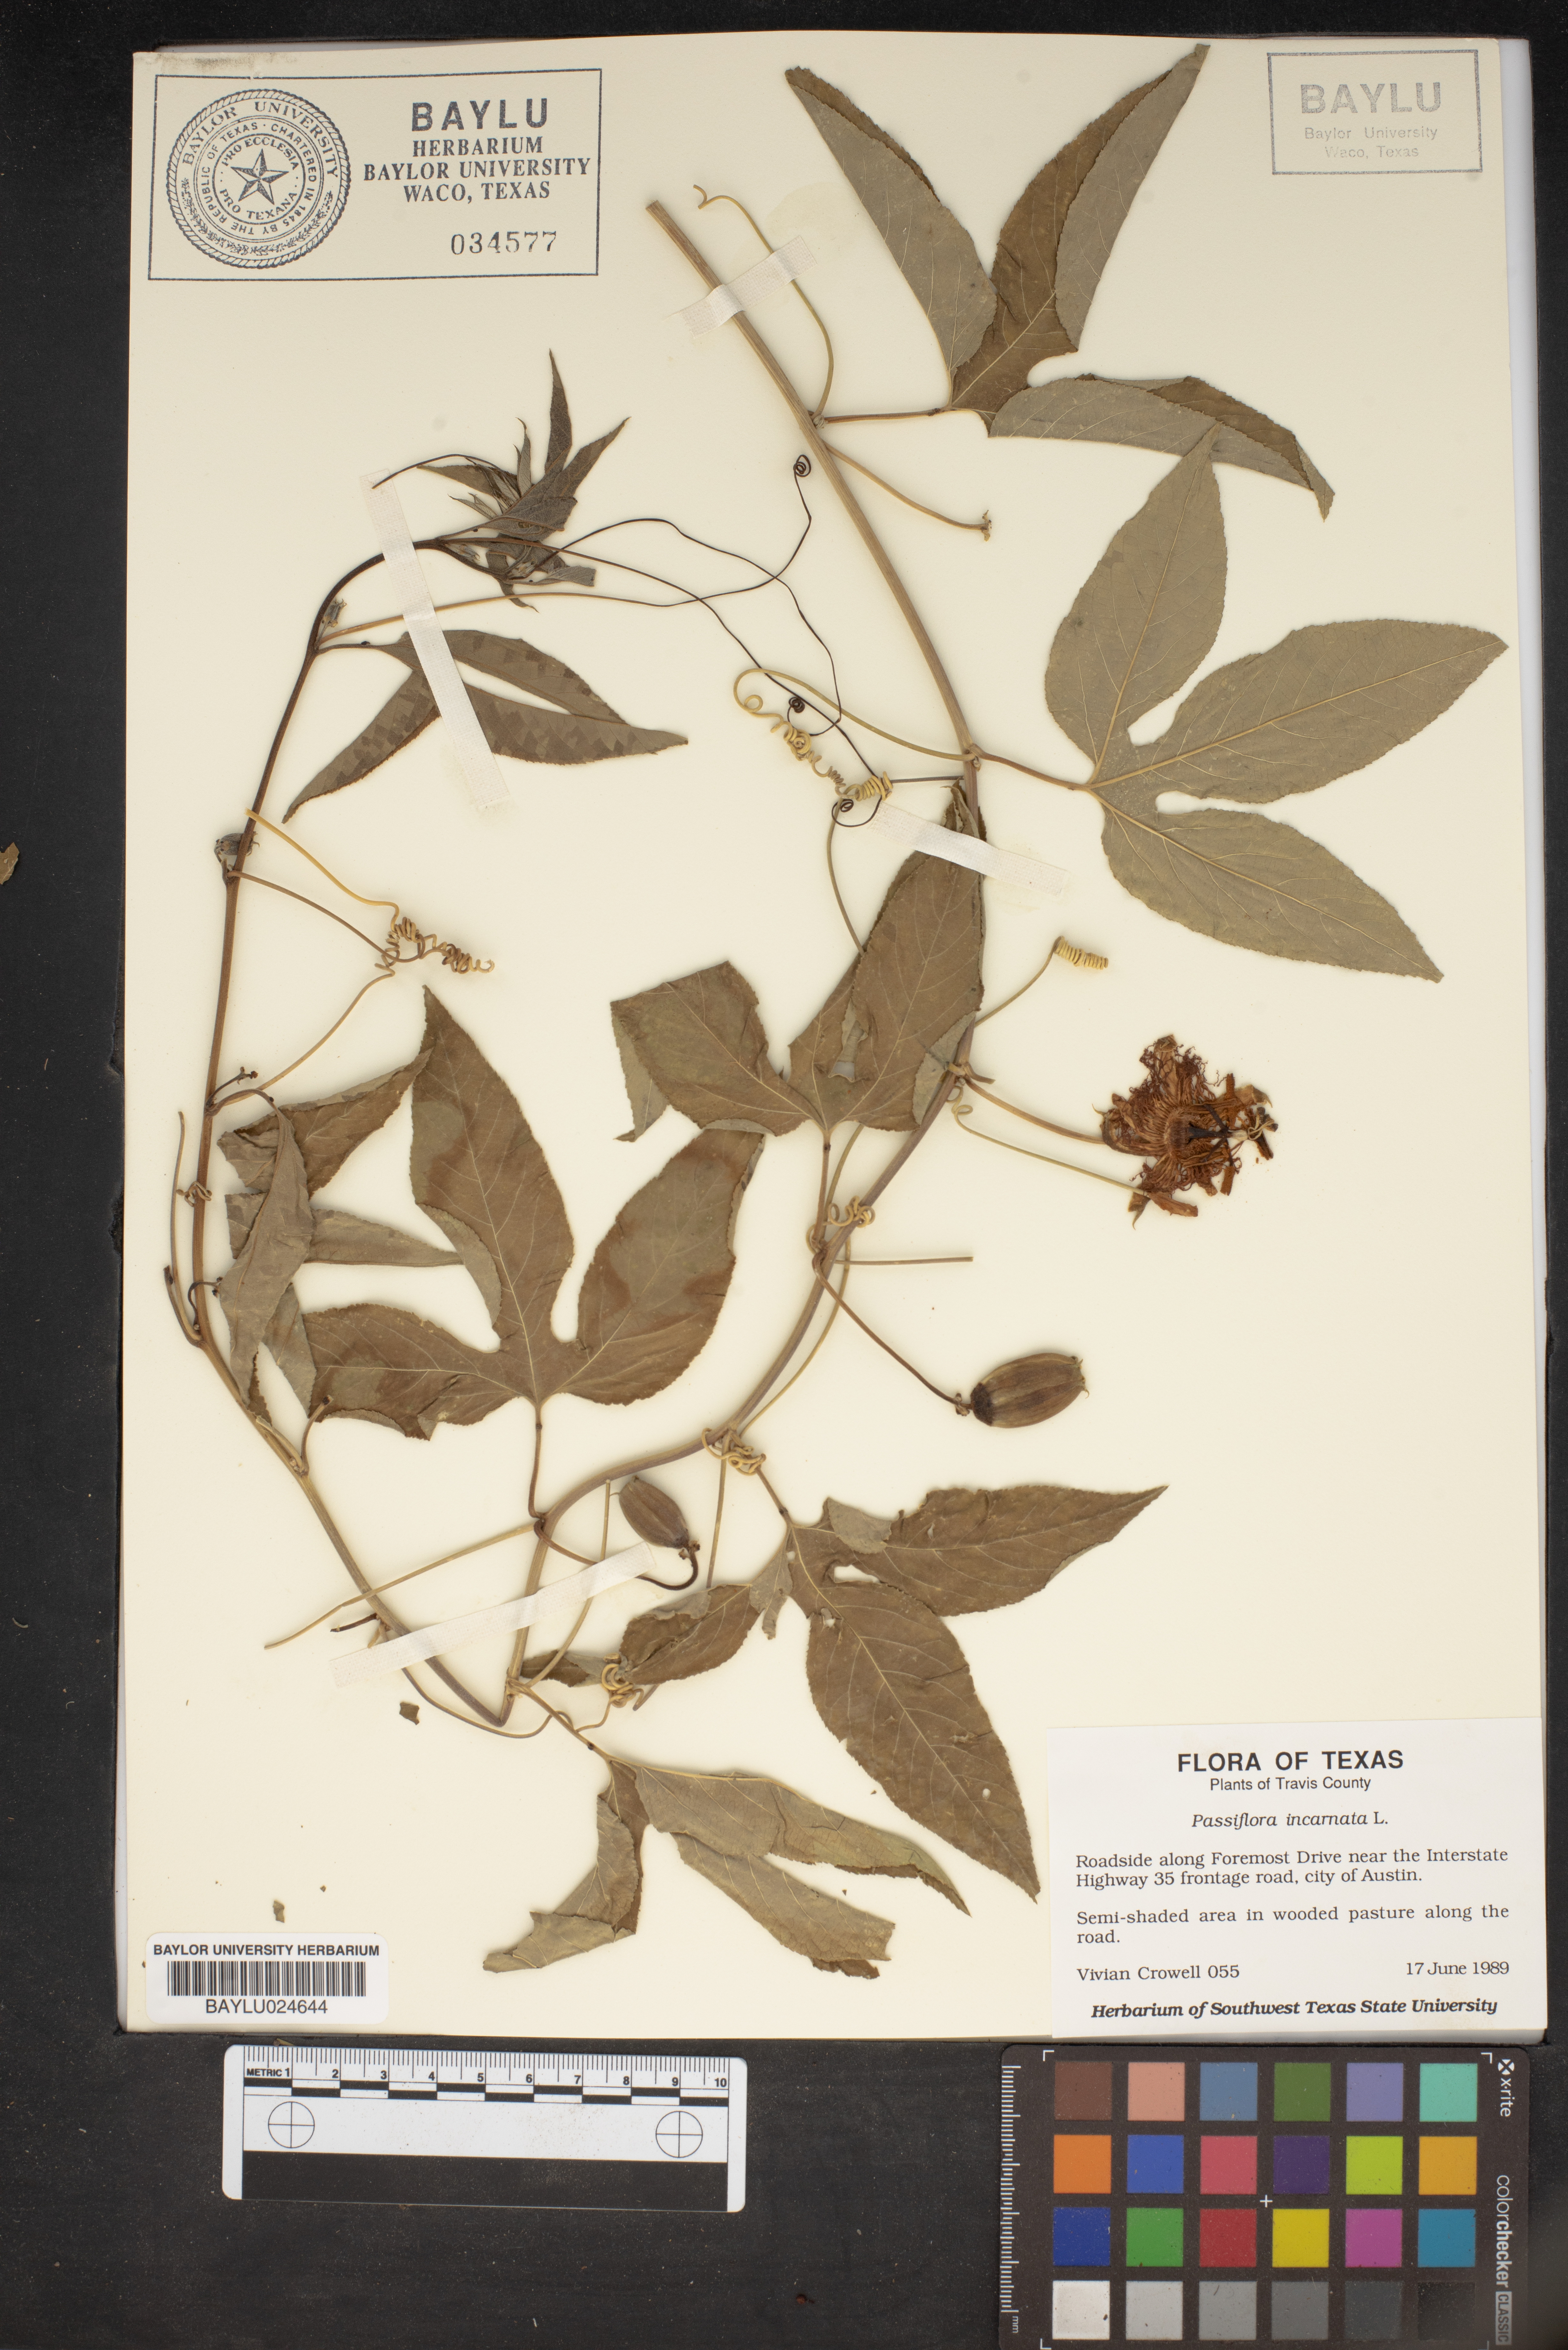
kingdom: Plantae
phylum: Tracheophyta
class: Magnoliopsida
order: Malpighiales
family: Passifloraceae
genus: Passiflora
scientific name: Passiflora incarnata
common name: Apricot-vine
